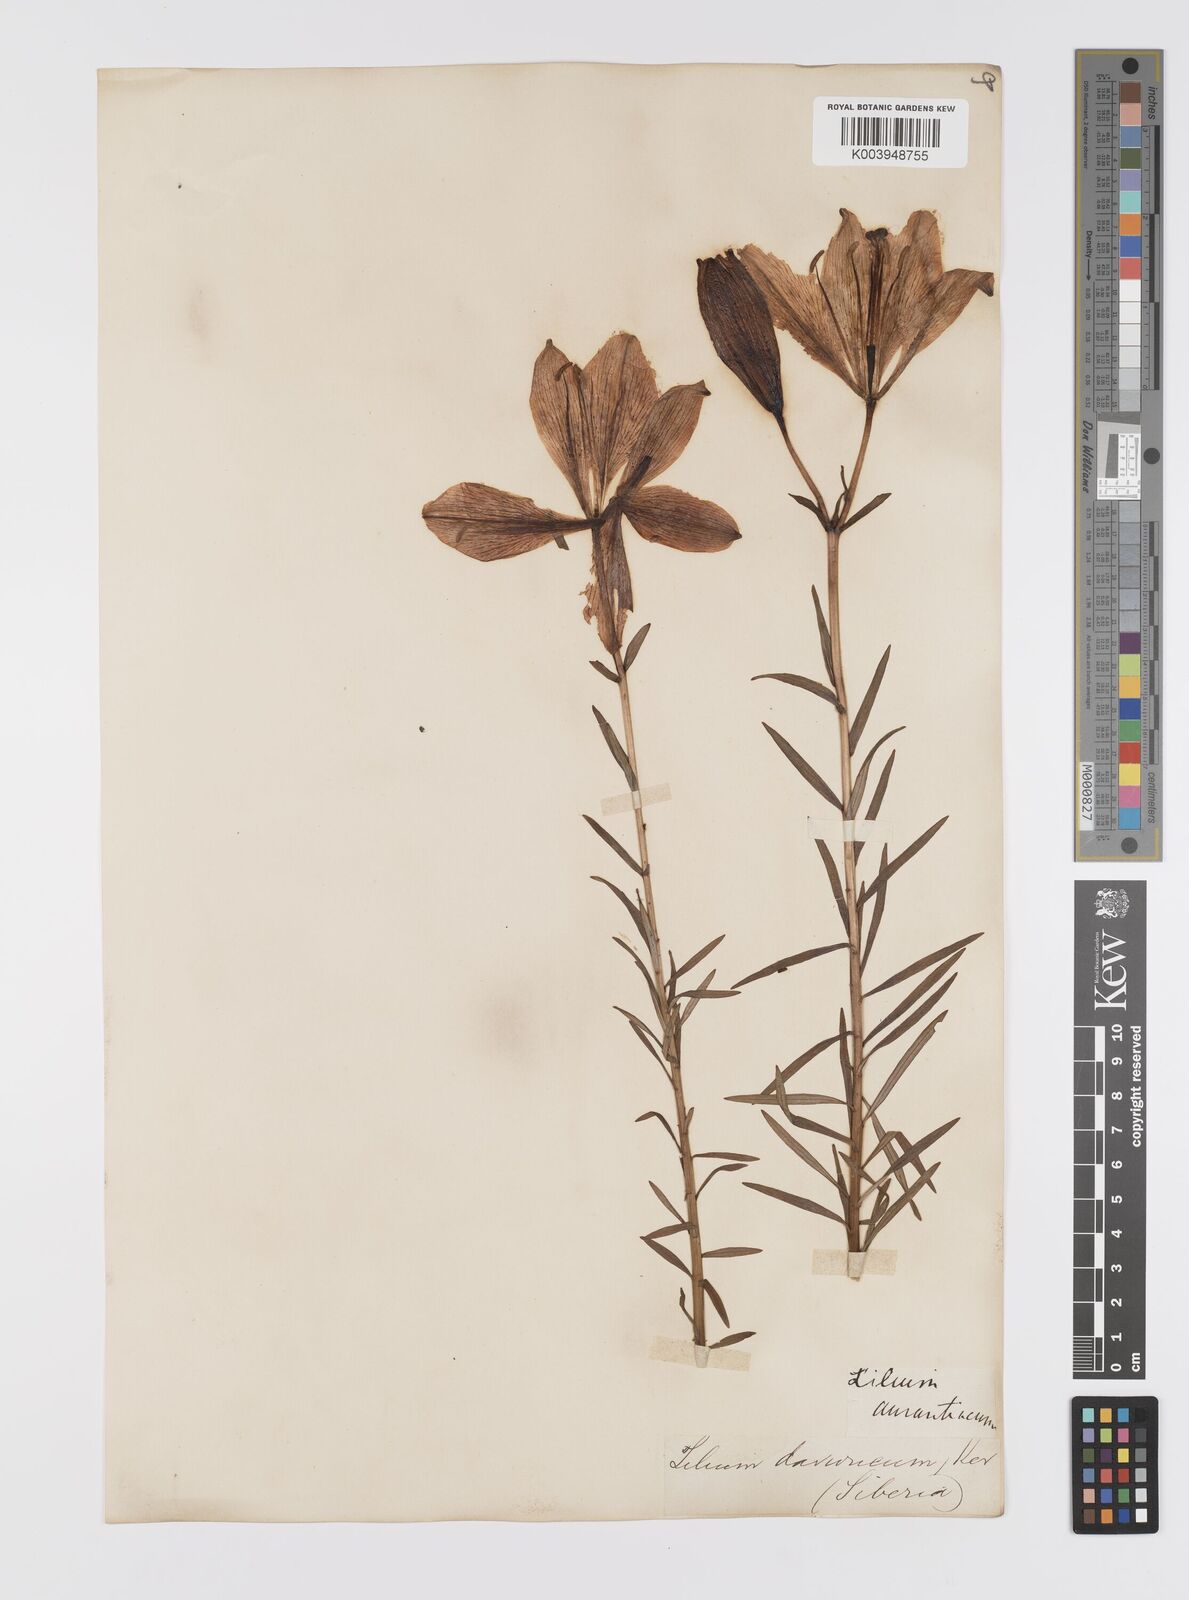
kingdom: Plantae
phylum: Tracheophyta
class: Liliopsida
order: Liliales
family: Liliaceae
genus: Lilium
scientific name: Lilium pensylvanicum
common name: Candlestick lily
